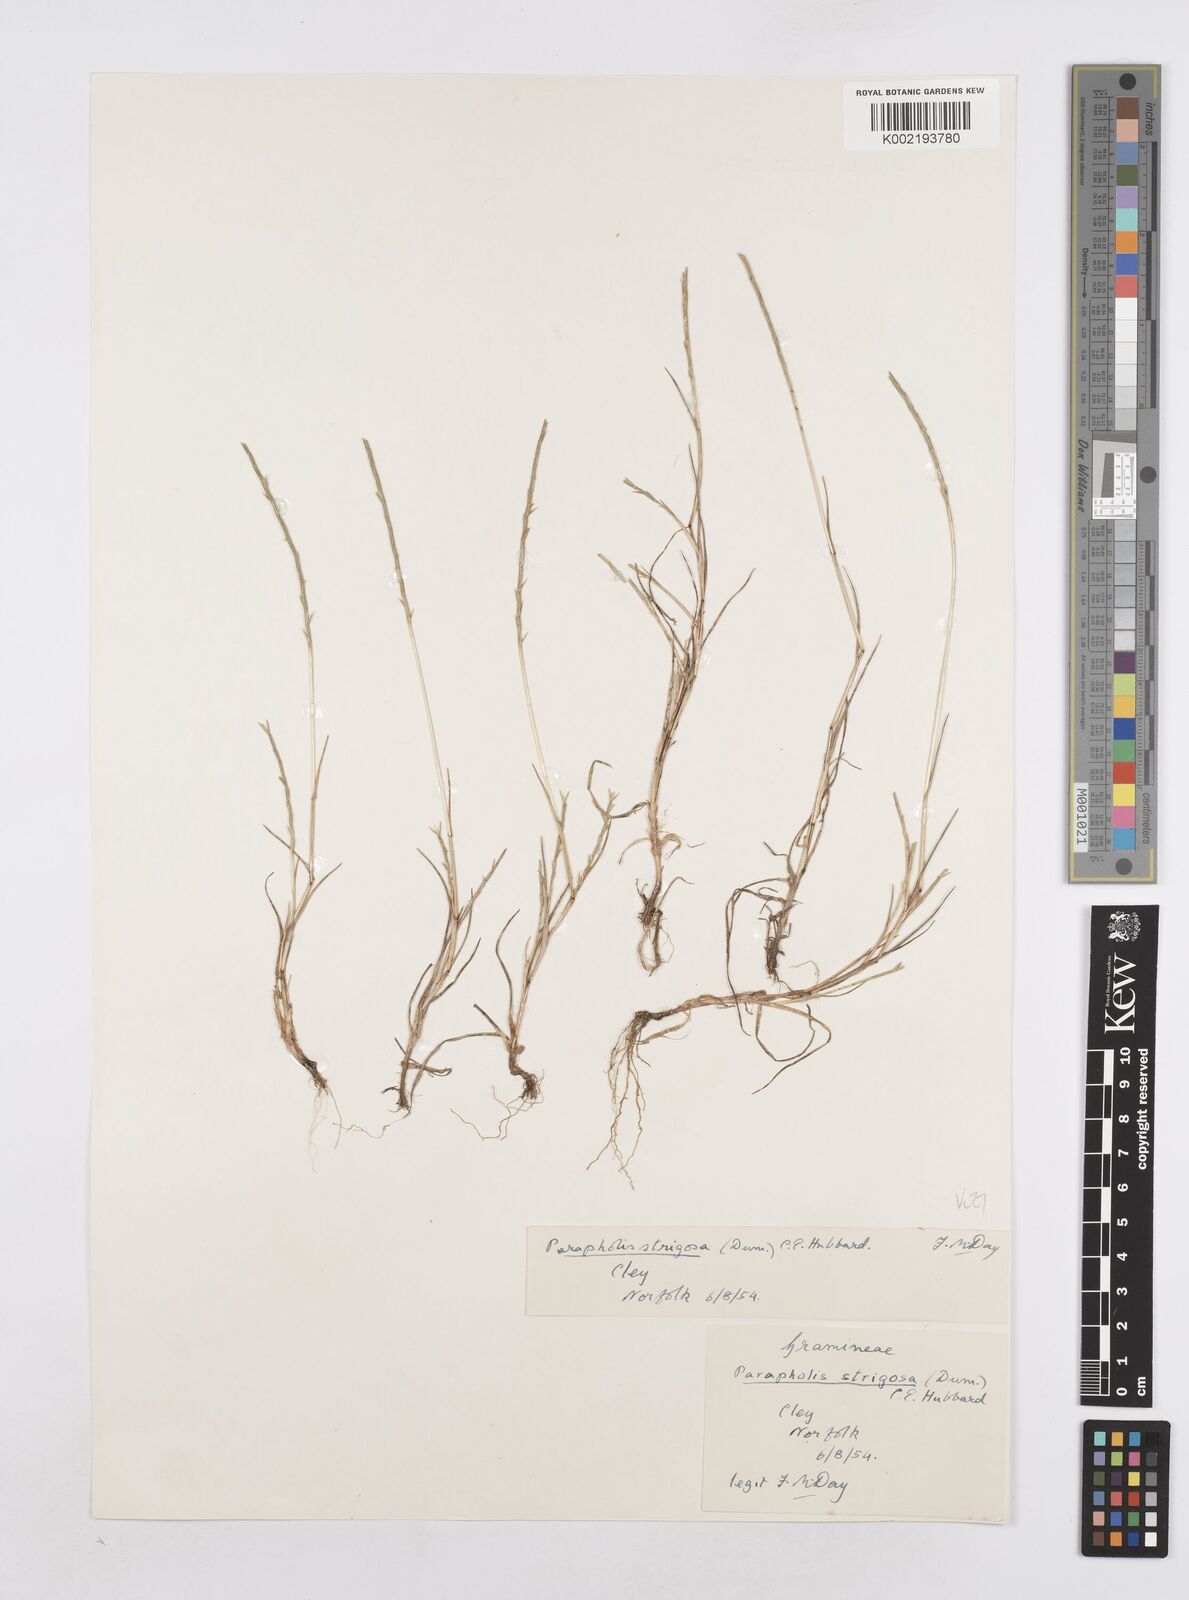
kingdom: Plantae
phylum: Tracheophyta
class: Liliopsida
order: Poales
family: Poaceae
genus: Parapholis
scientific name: Parapholis strigosa
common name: Hard-grass
